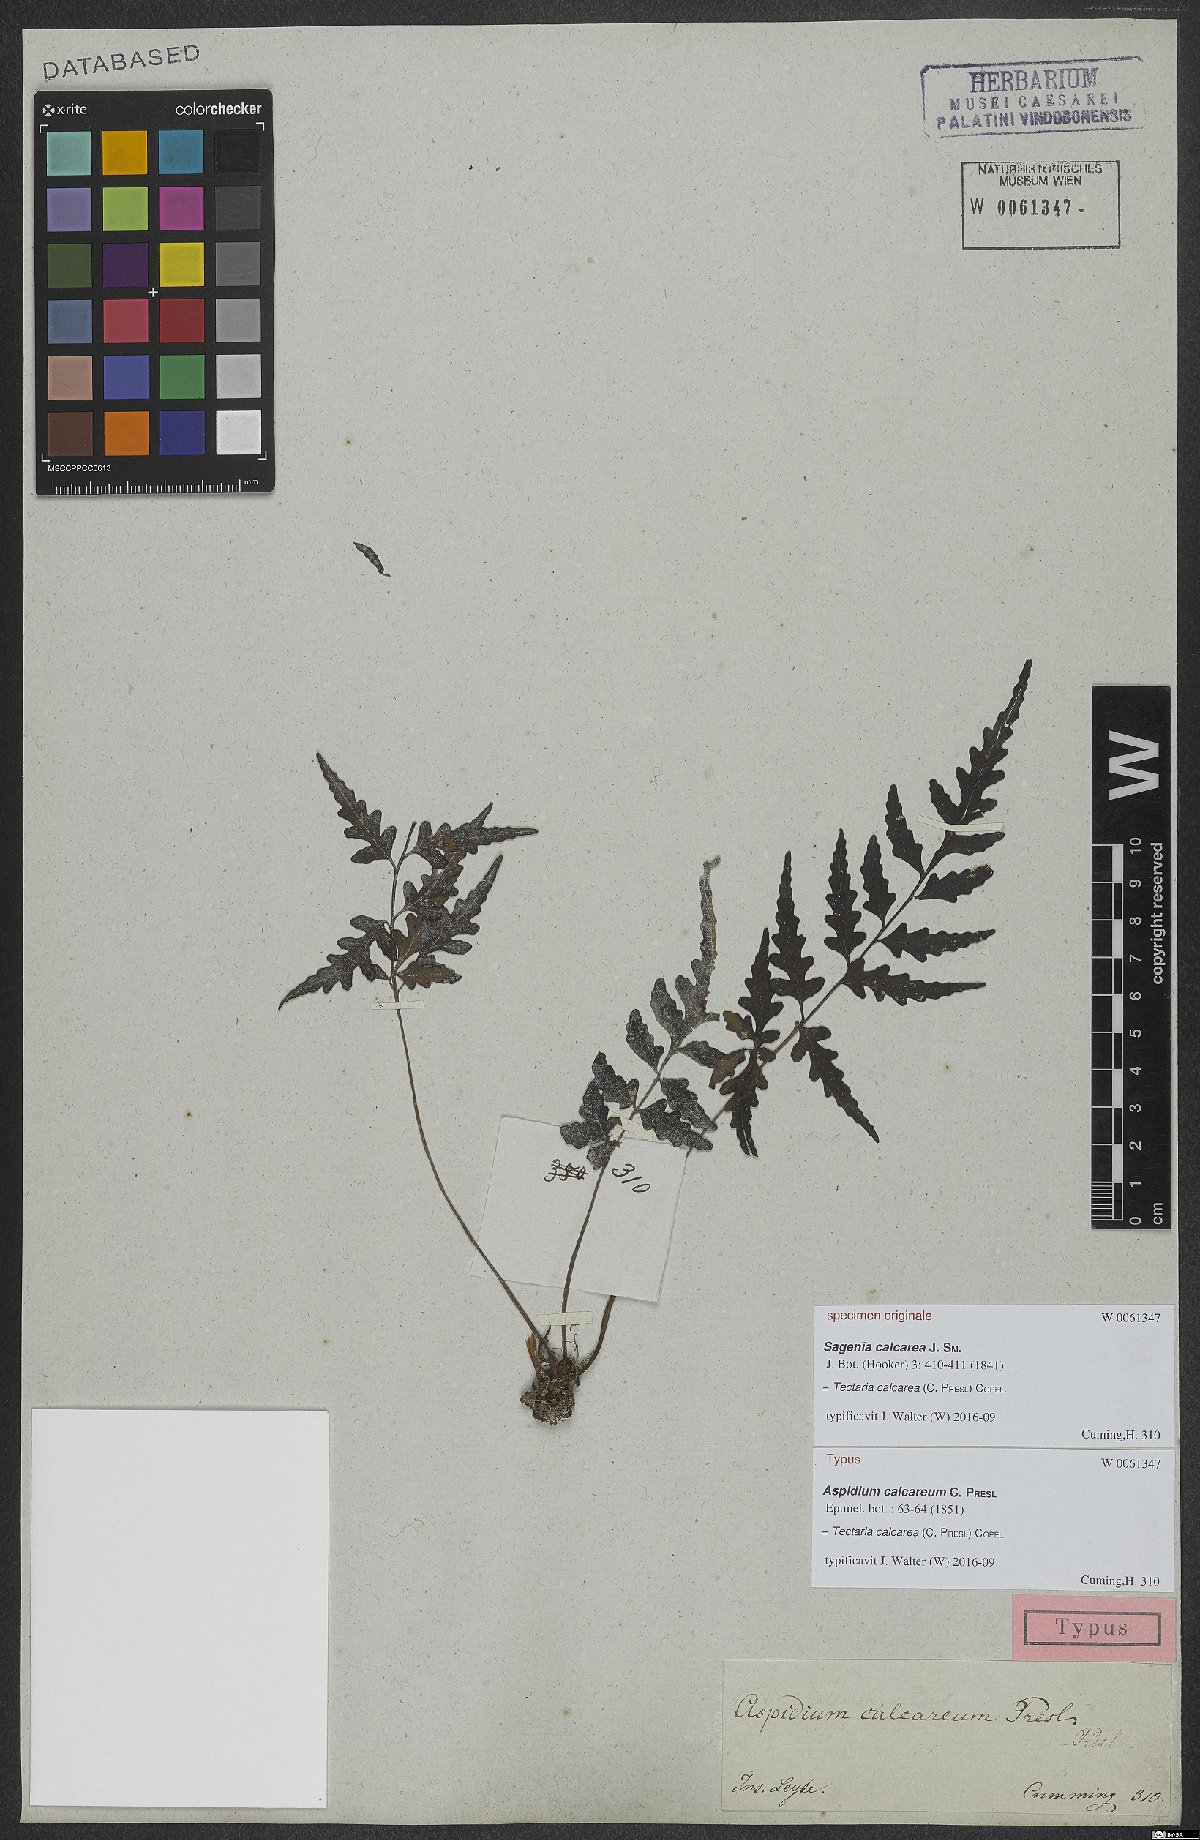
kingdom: Plantae
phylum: Tracheophyta
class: Polypodiopsida
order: Polypodiales
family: Tectariaceae
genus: Tectaria
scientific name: Tectaria calcarea
